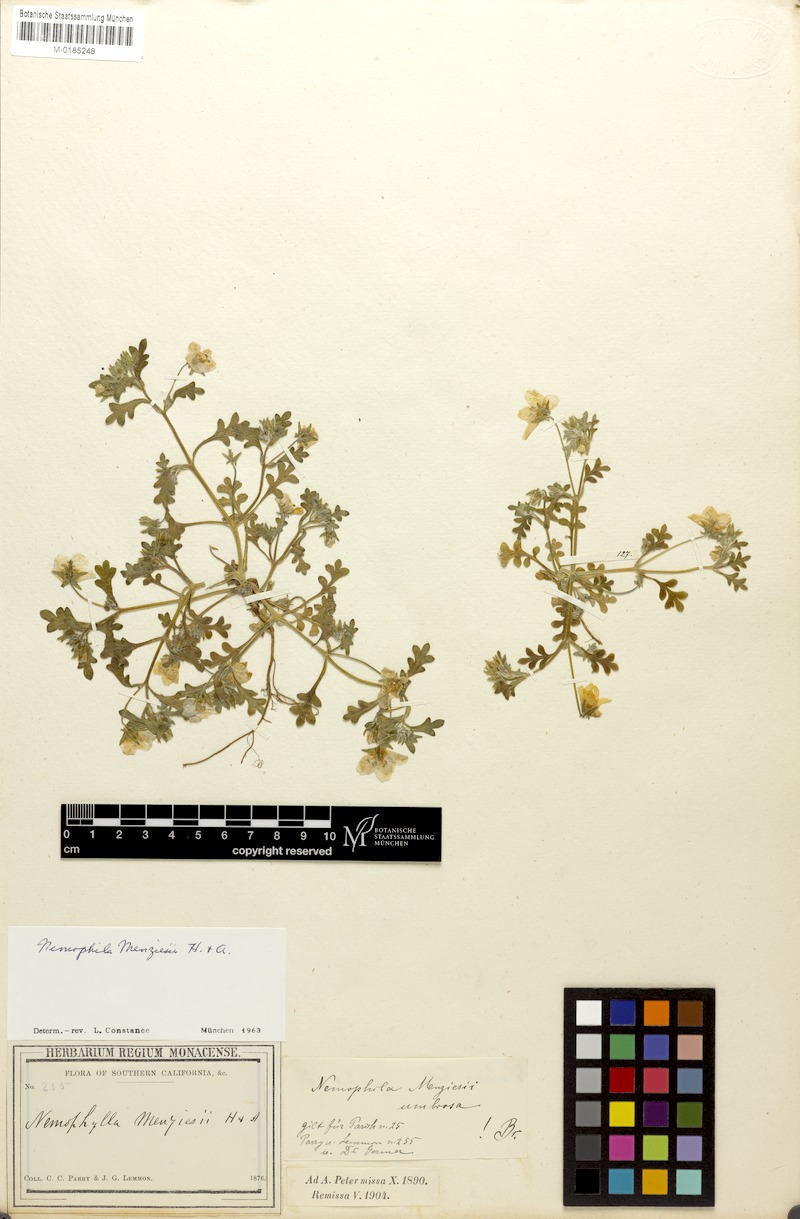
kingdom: Plantae
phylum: Tracheophyta
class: Magnoliopsida
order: Boraginales
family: Hydrophyllaceae
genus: Nemophila
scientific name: Nemophila menziesii
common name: Baby's-blue-eyes
